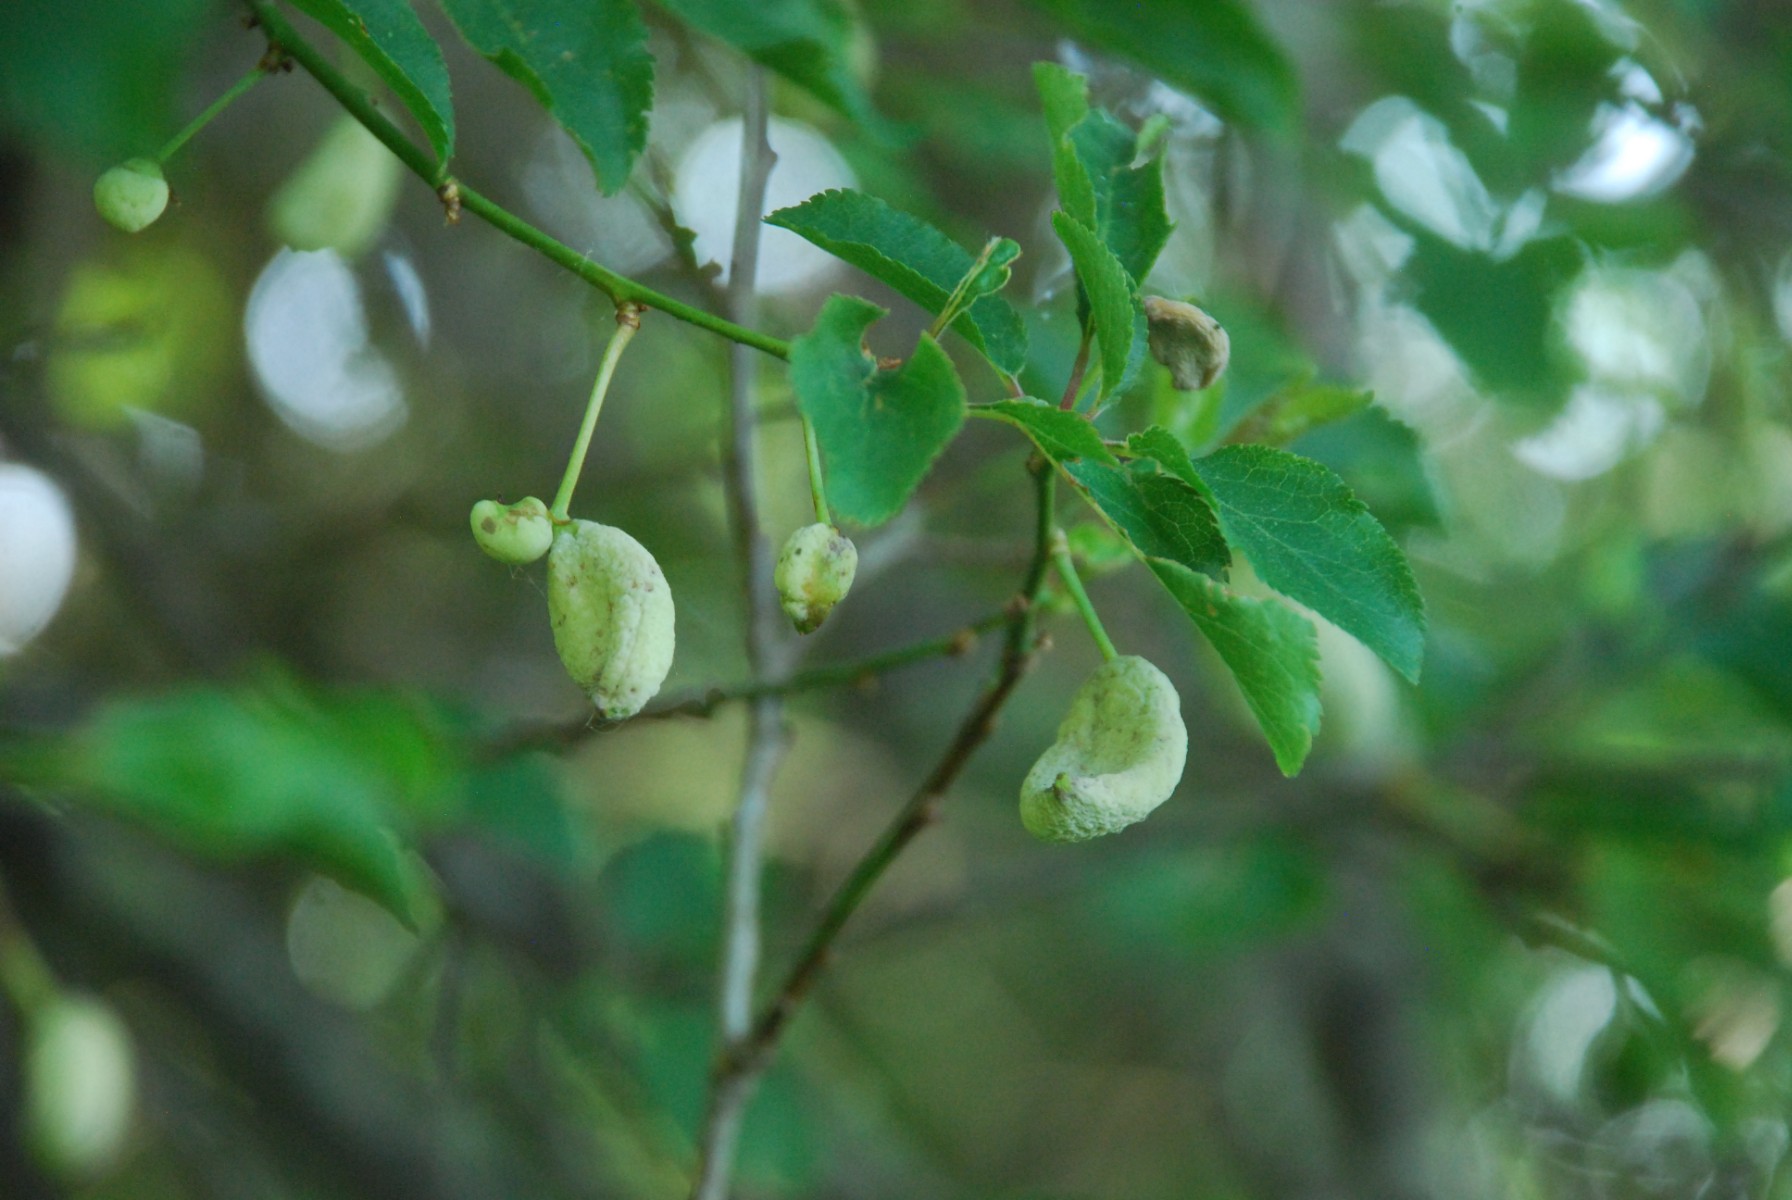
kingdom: Fungi
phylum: Ascomycota
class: Taphrinomycetes
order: Taphrinales
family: Taphrinaceae
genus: Taphrina
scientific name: Taphrina pruni
